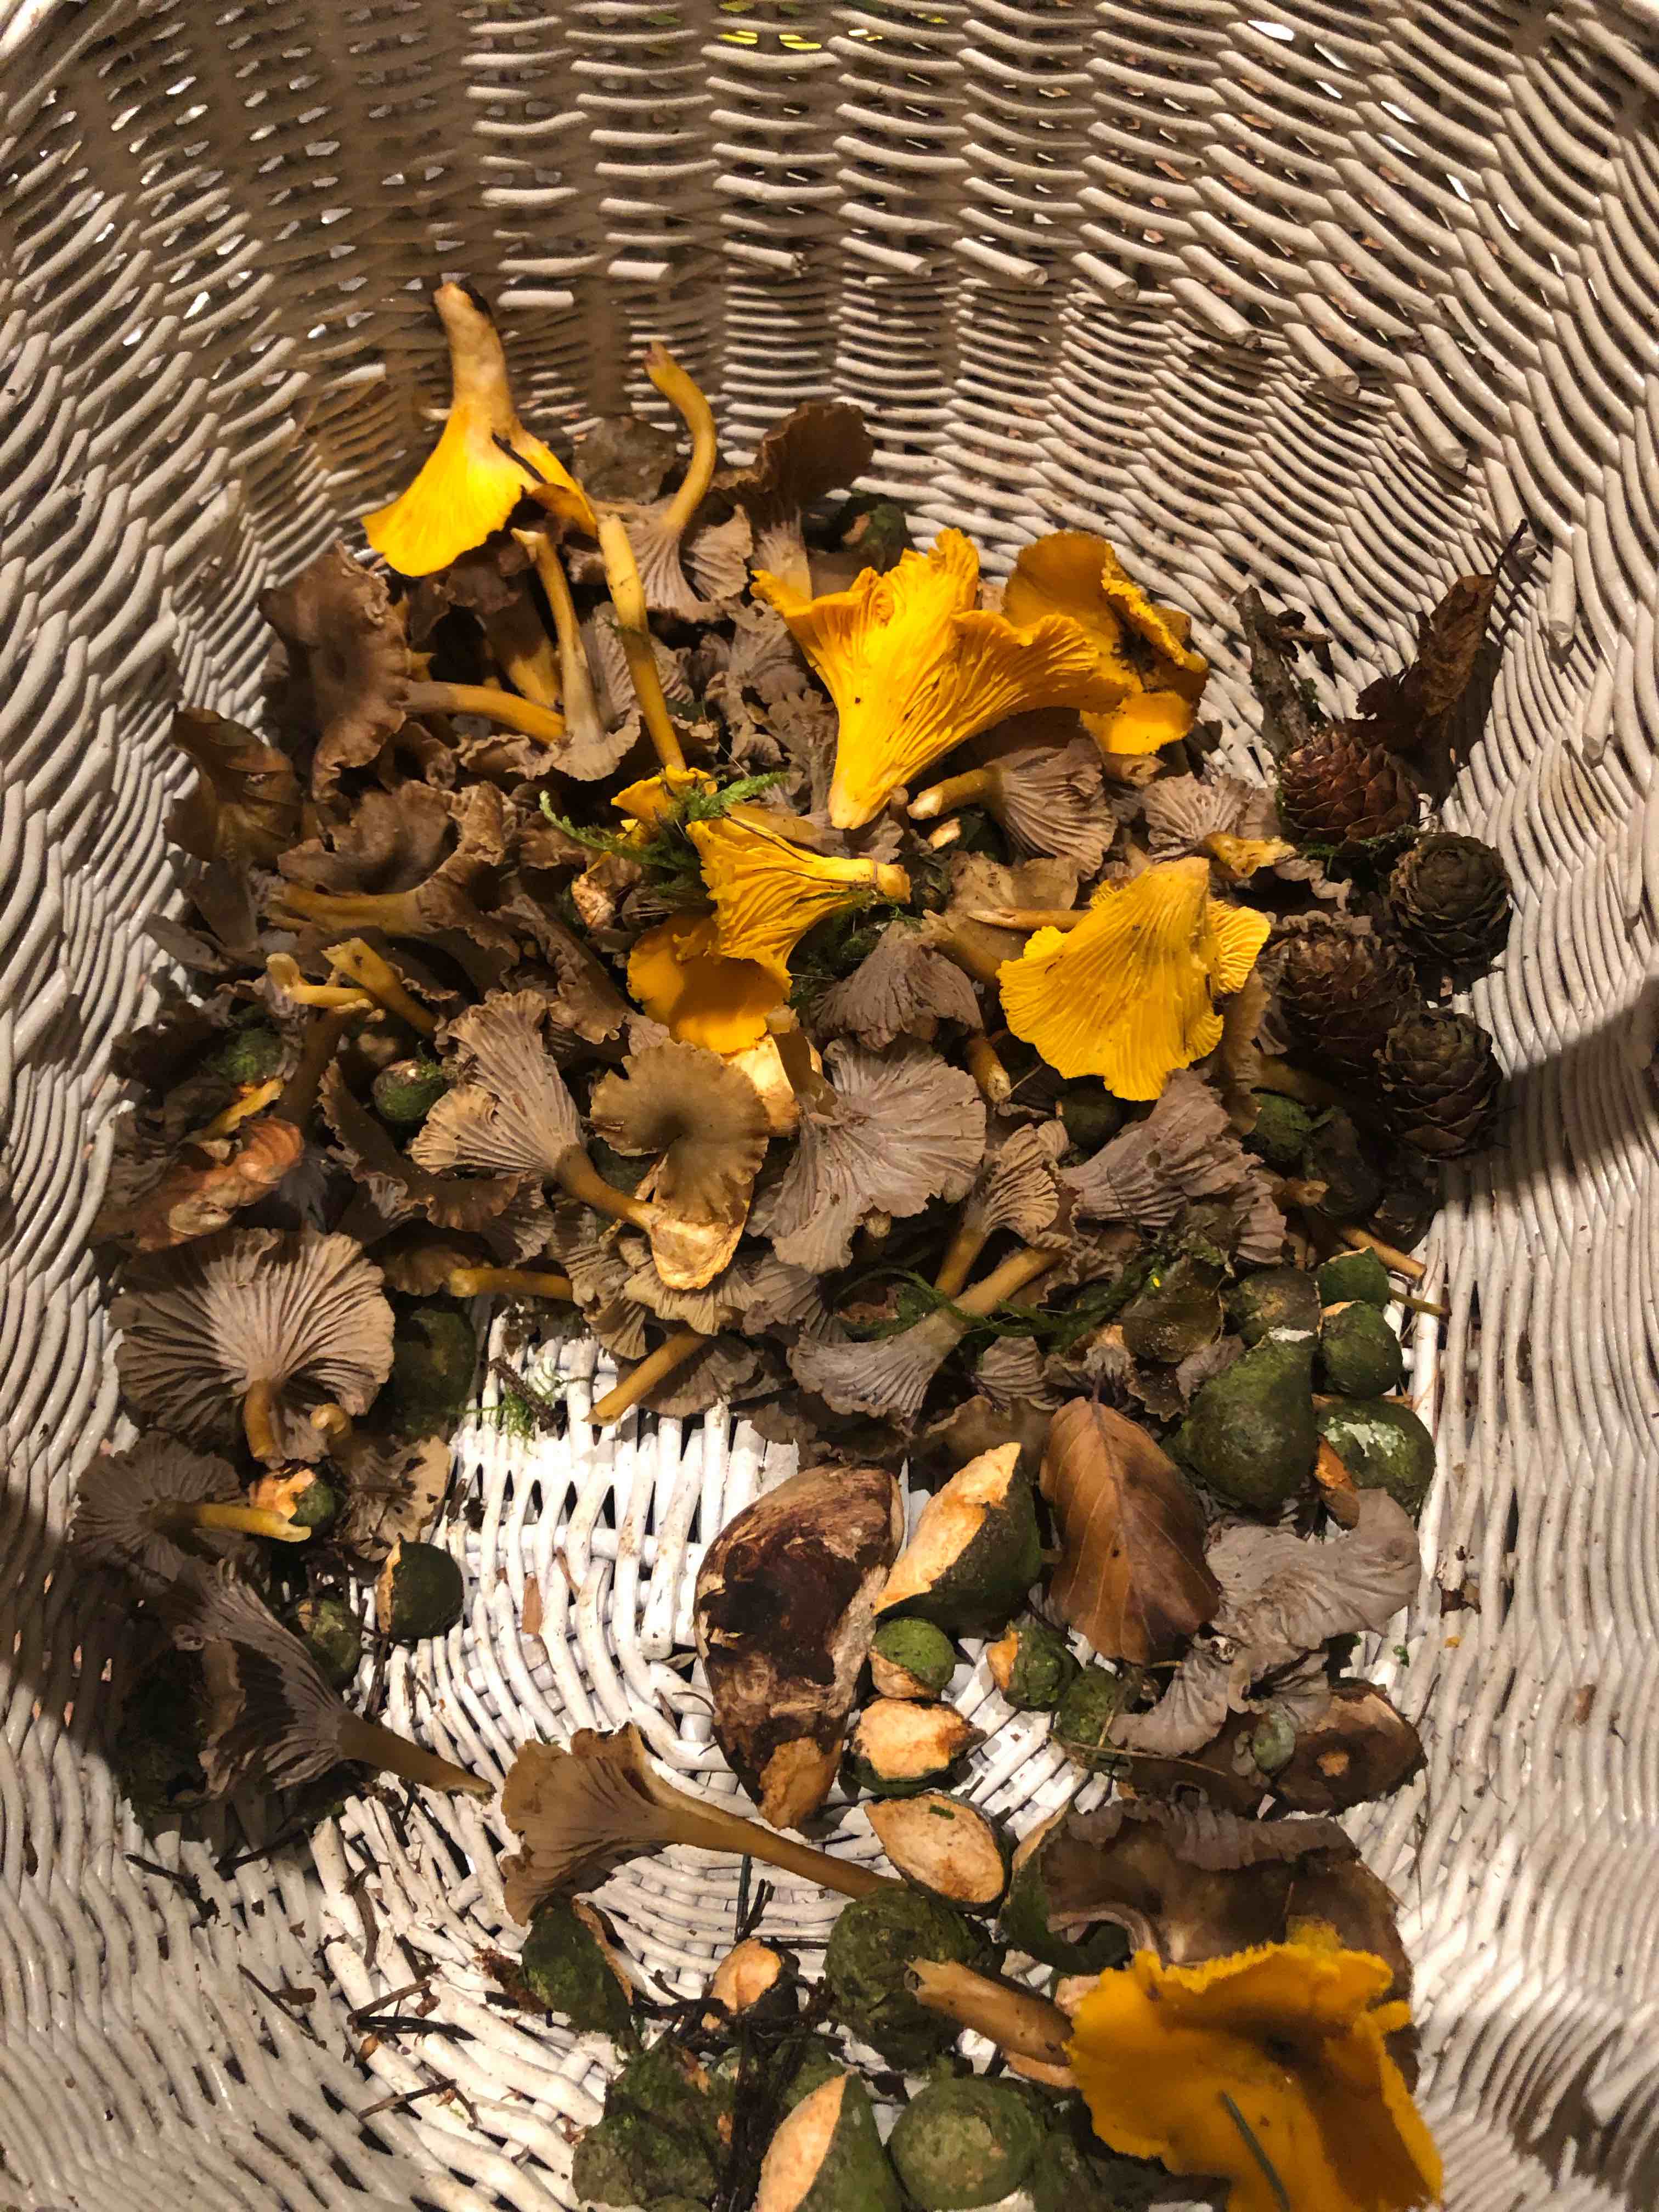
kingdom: Fungi
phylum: Basidiomycota
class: Agaricomycetes
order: Cantharellales
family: Hydnaceae
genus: Cantharellus
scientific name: Cantharellus cibarius
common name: almindelig kantarel
